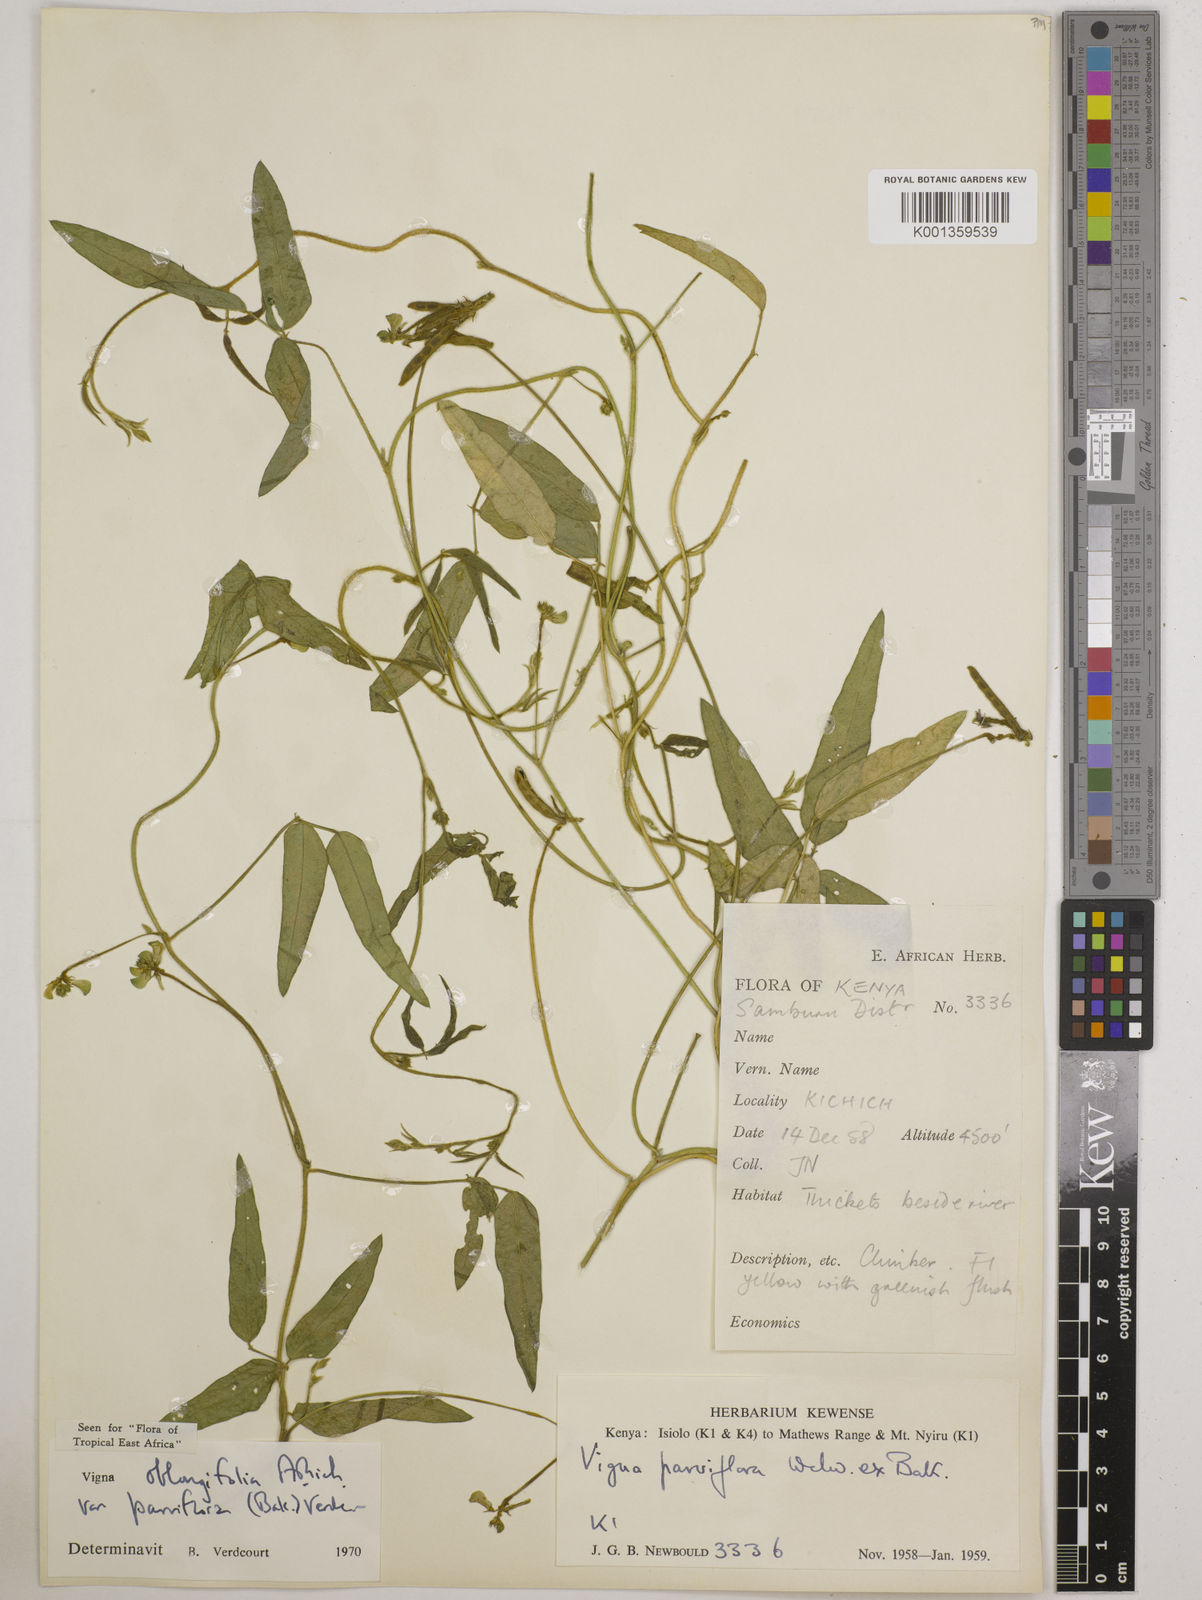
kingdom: Plantae
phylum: Tracheophyta
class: Magnoliopsida
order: Fabales
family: Fabaceae
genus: Vigna
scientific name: Vigna
